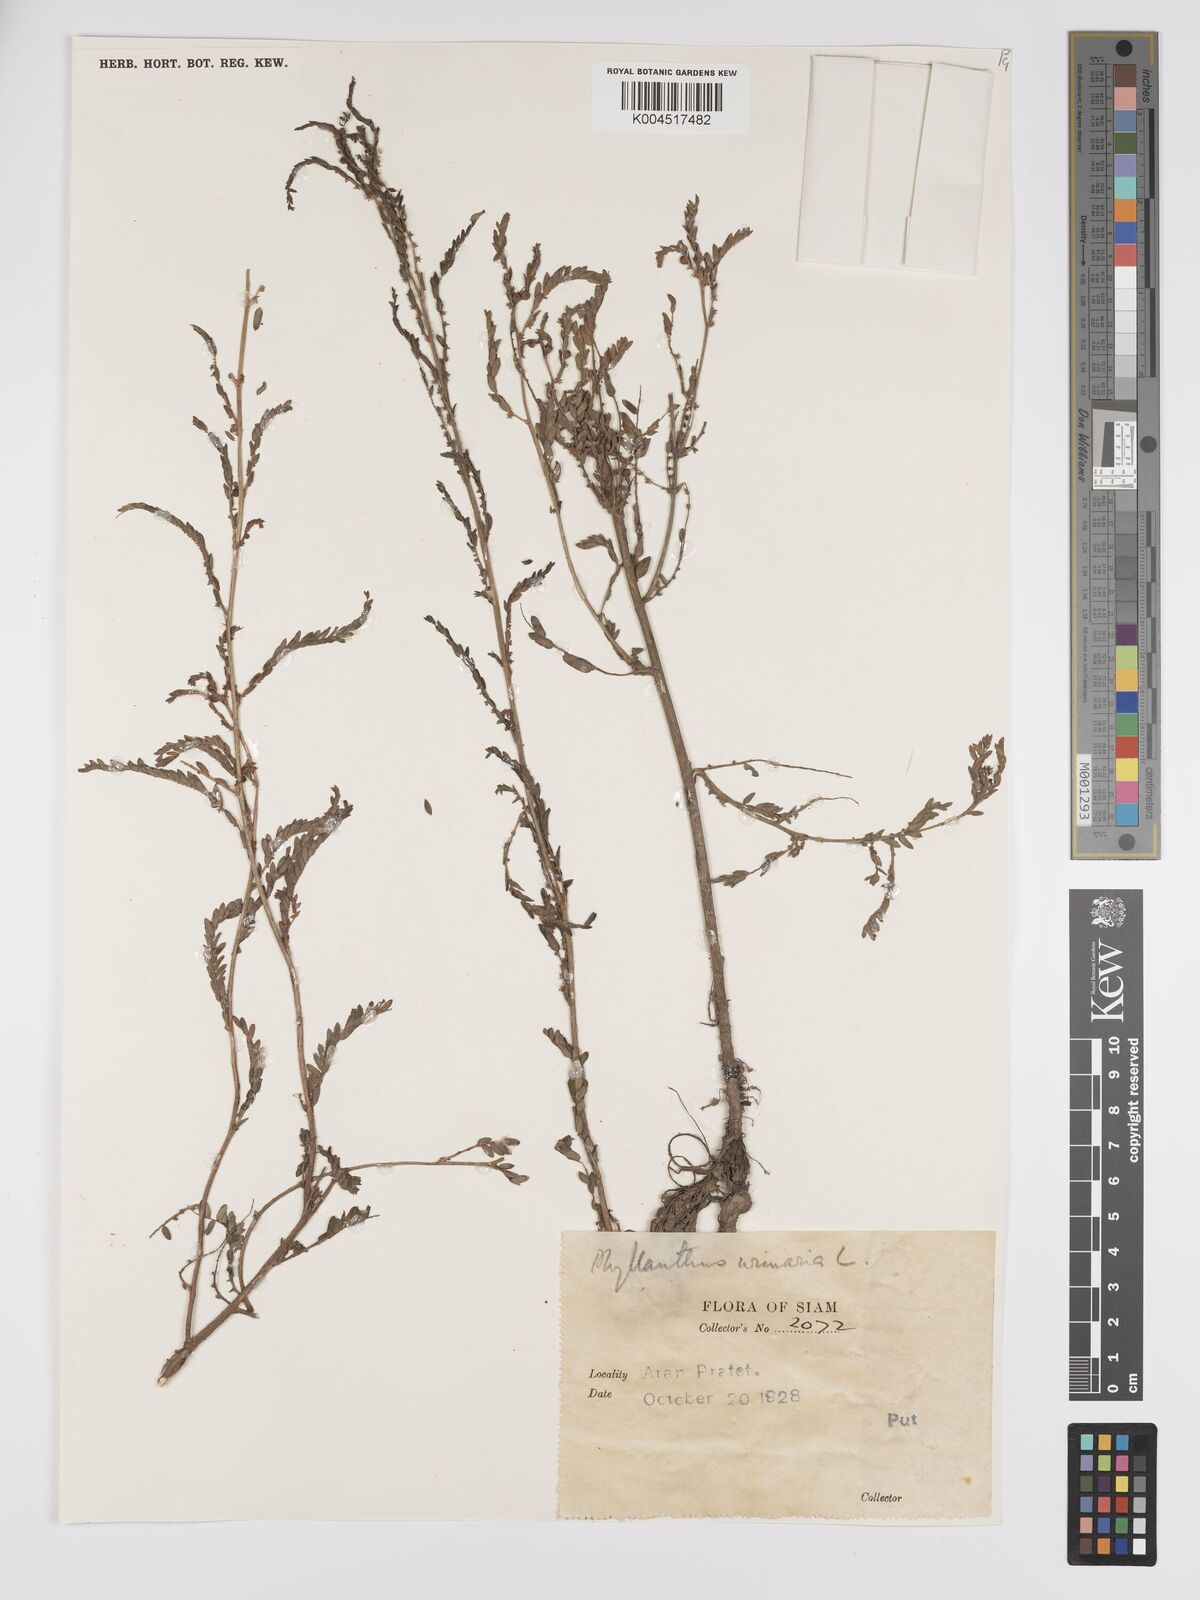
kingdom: Plantae
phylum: Tracheophyta
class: Magnoliopsida
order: Malpighiales
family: Phyllanthaceae
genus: Phyllanthus
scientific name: Phyllanthus urinaria
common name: Chamber bitter
